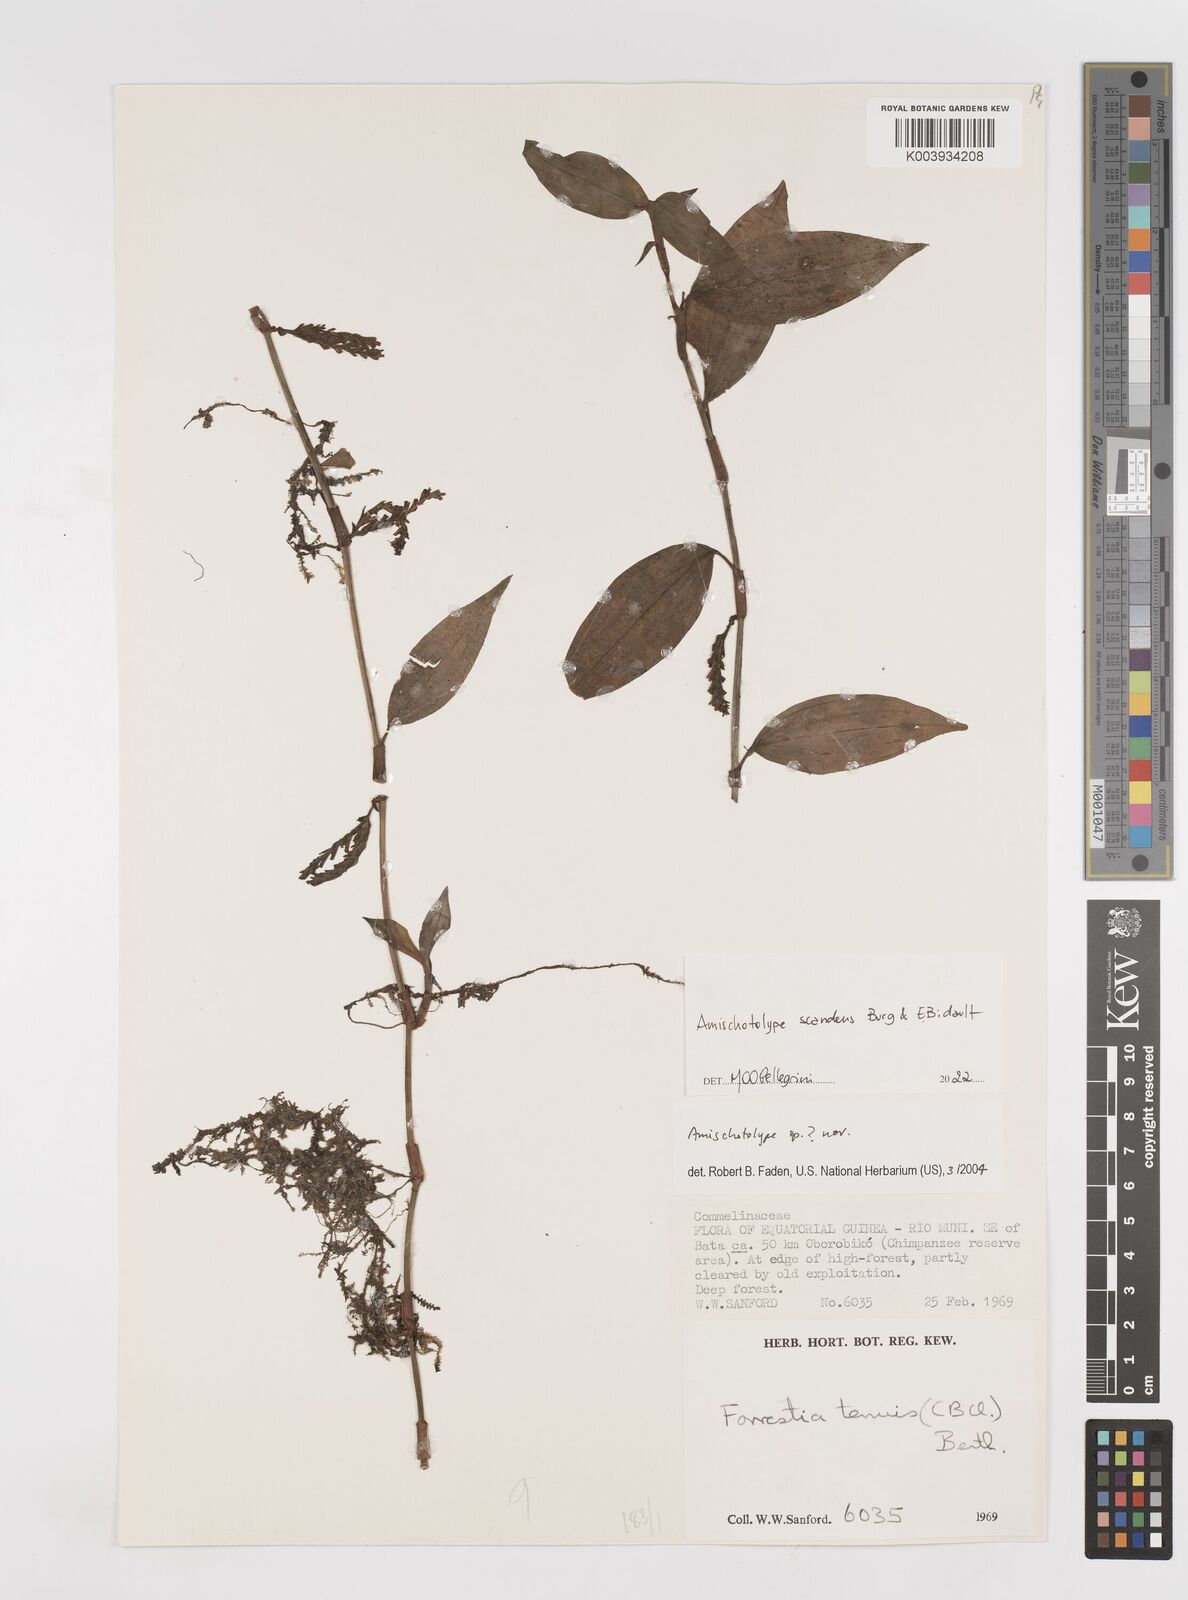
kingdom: Plantae
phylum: Tracheophyta
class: Liliopsida
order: Commelinales
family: Commelinaceae
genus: Amischotolype
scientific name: Amischotolype
